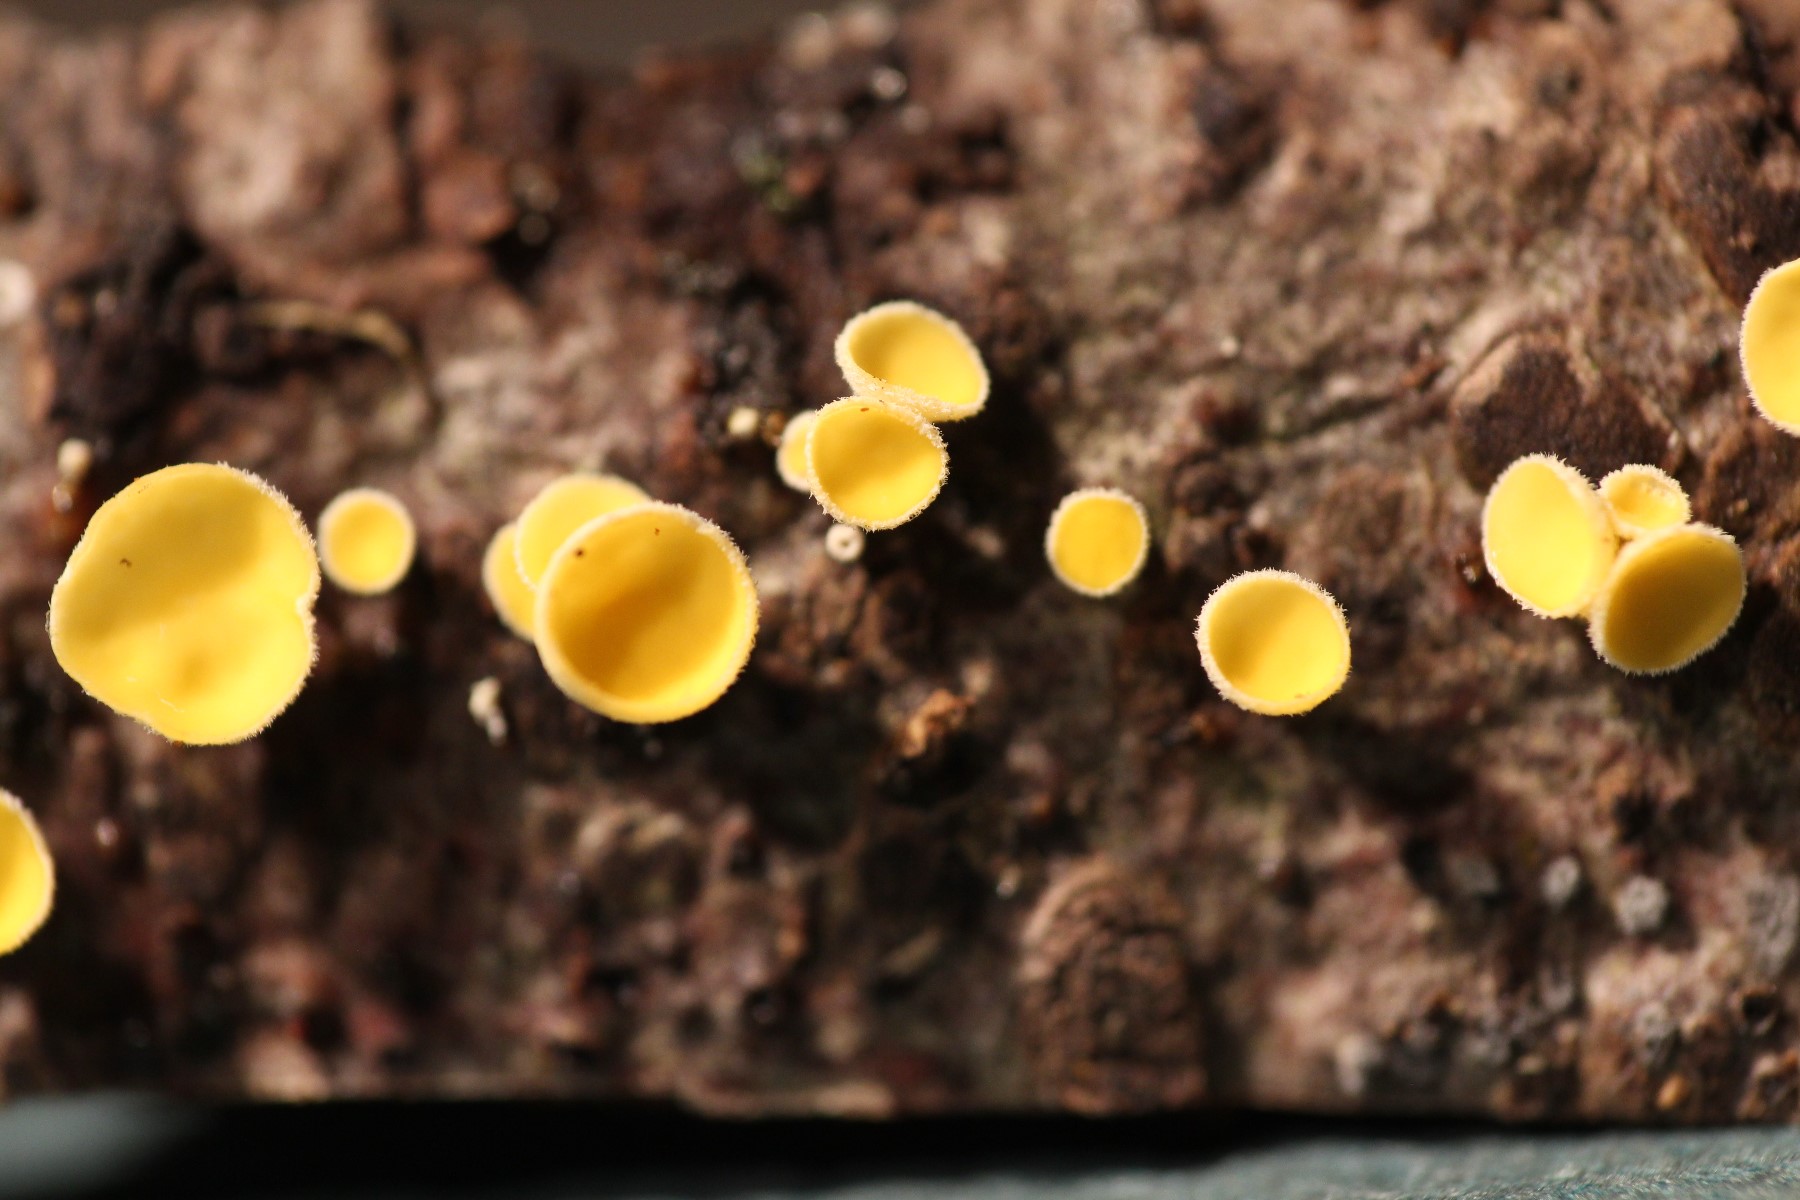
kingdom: Fungi
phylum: Ascomycota
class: Leotiomycetes
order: Helotiales
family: Lachnaceae
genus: Lachnellula
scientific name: Lachnellula
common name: frynseskive
